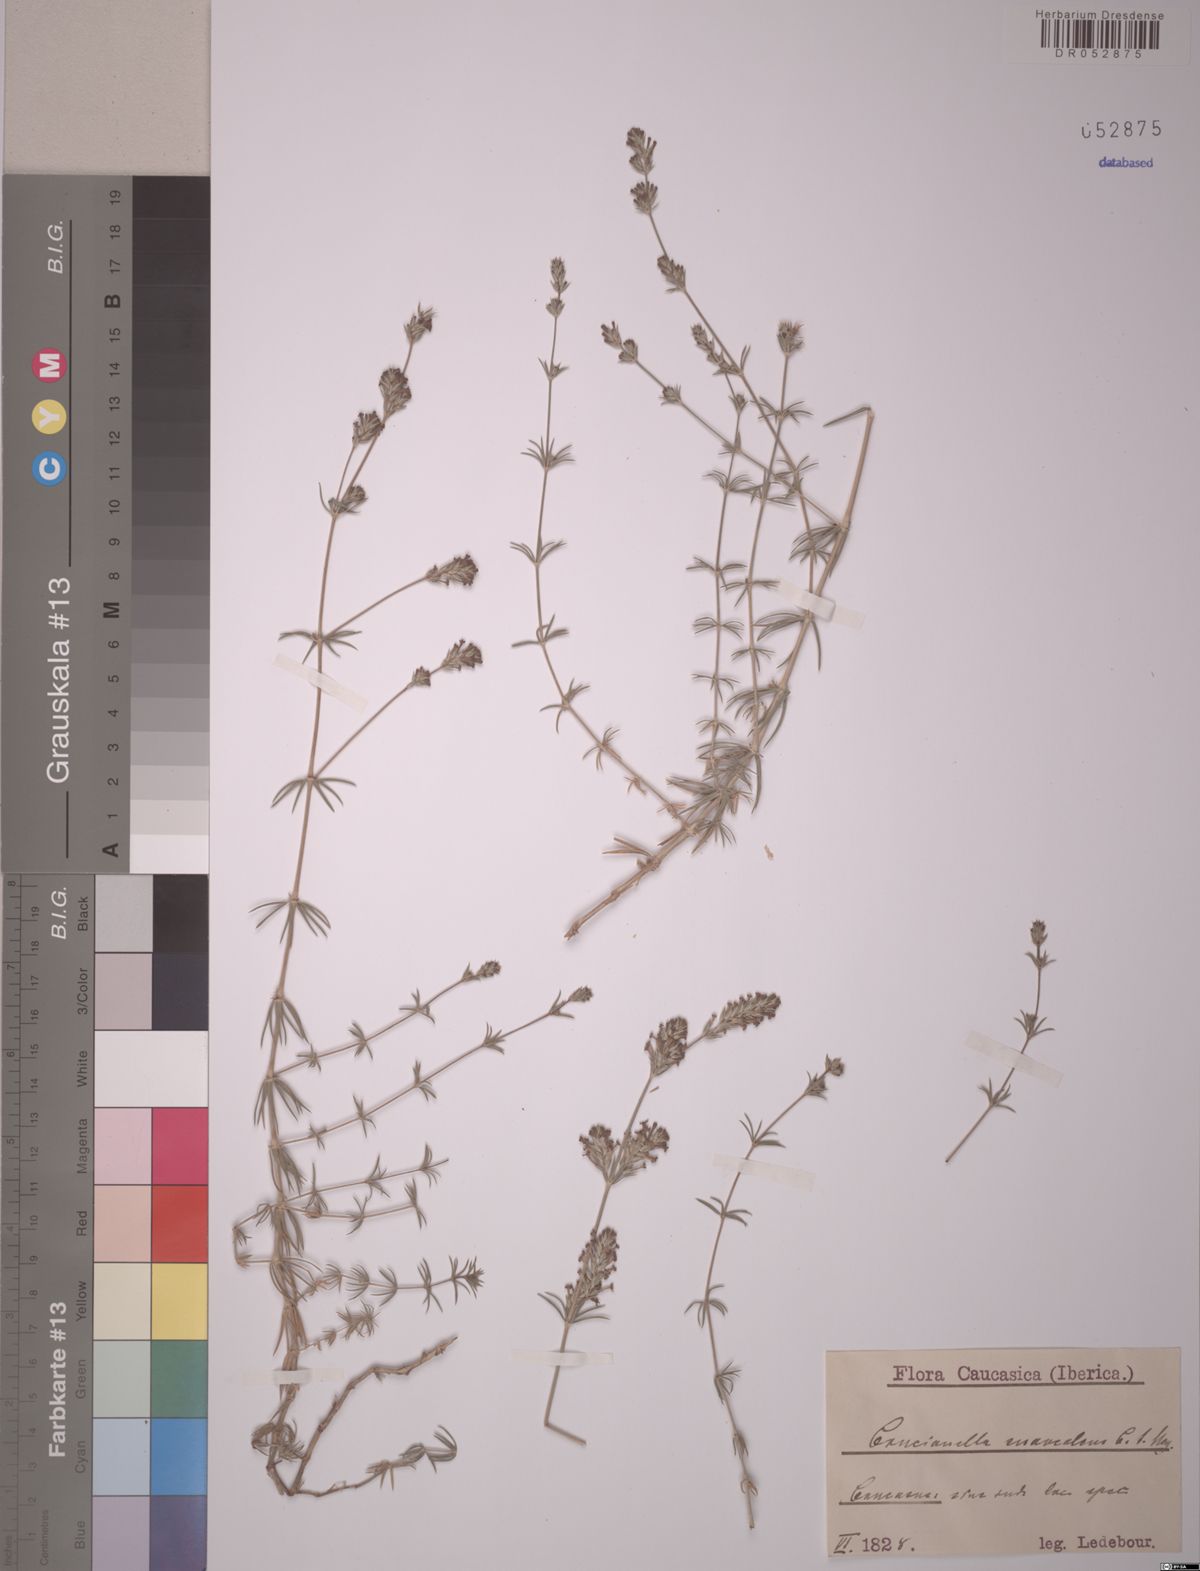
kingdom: Plantae
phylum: Tracheophyta
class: Magnoliopsida
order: Gentianales
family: Rubiaceae
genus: Crucianella
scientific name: Crucianella suaveolens
